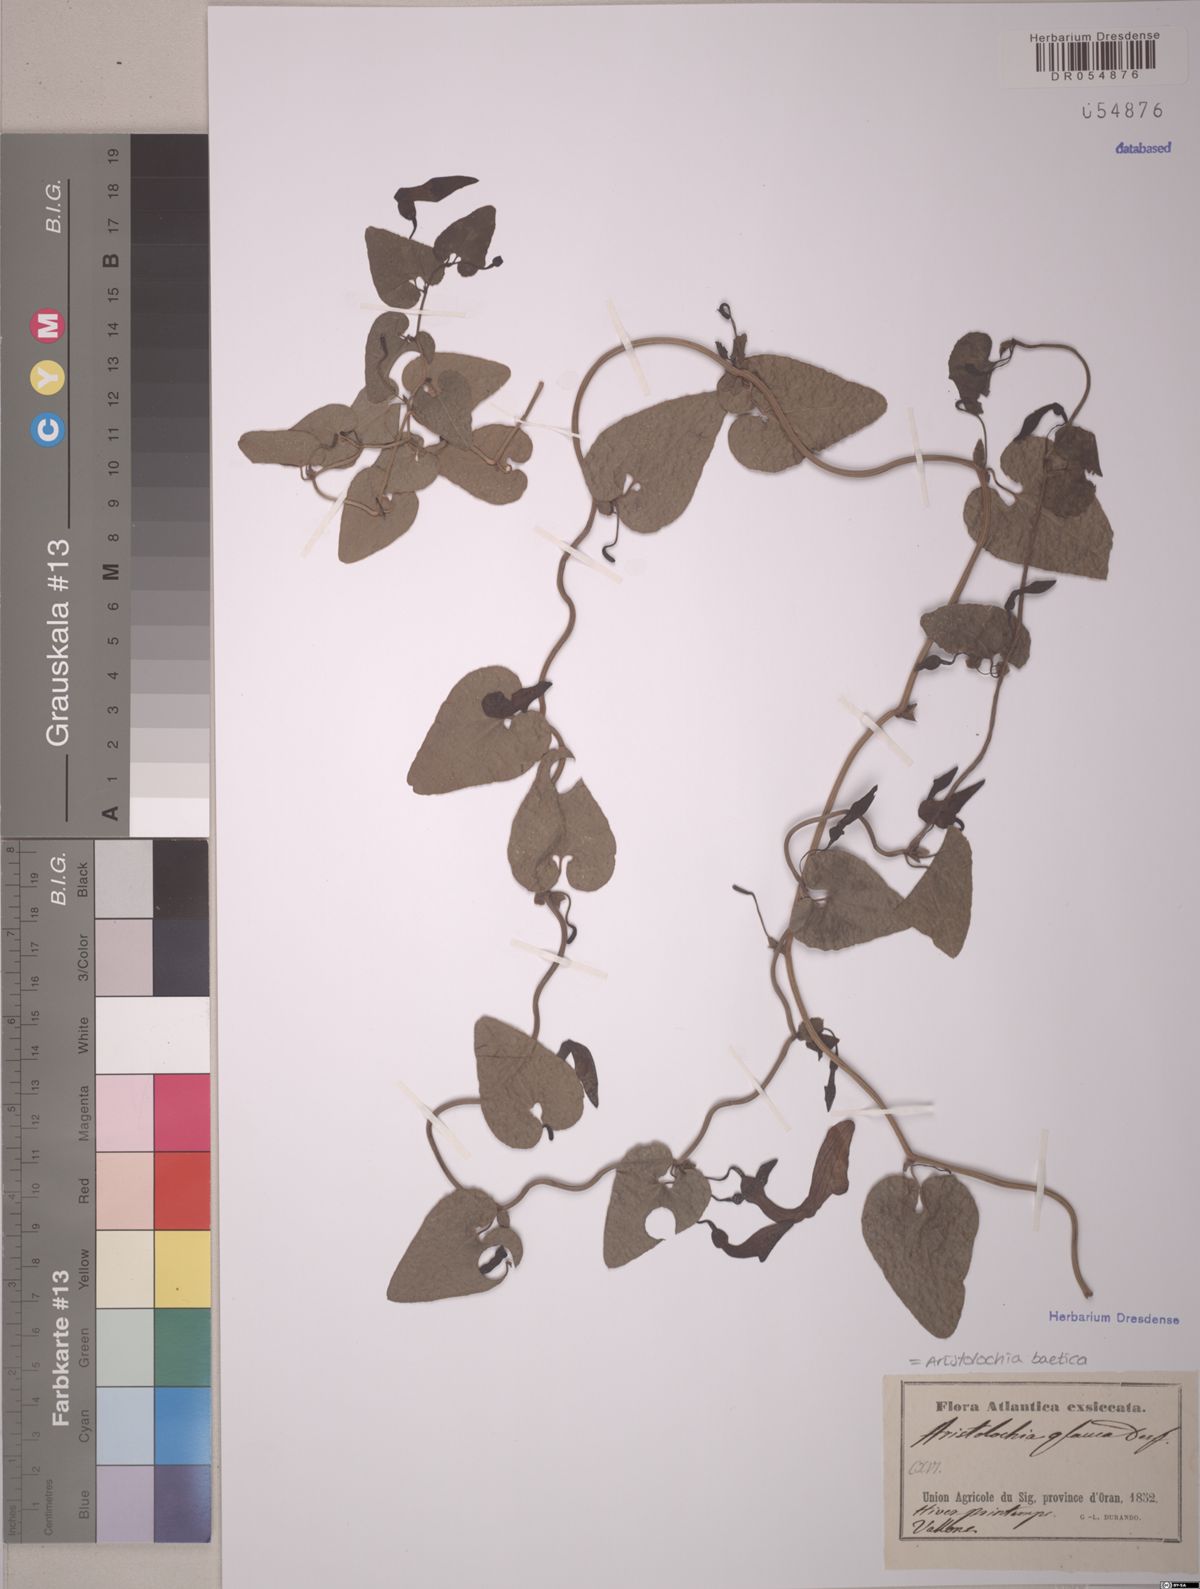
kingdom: Plantae
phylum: Tracheophyta
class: Magnoliopsida
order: Piperales
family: Aristolochiaceae
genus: Aristolochia
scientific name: Aristolochia baetica
